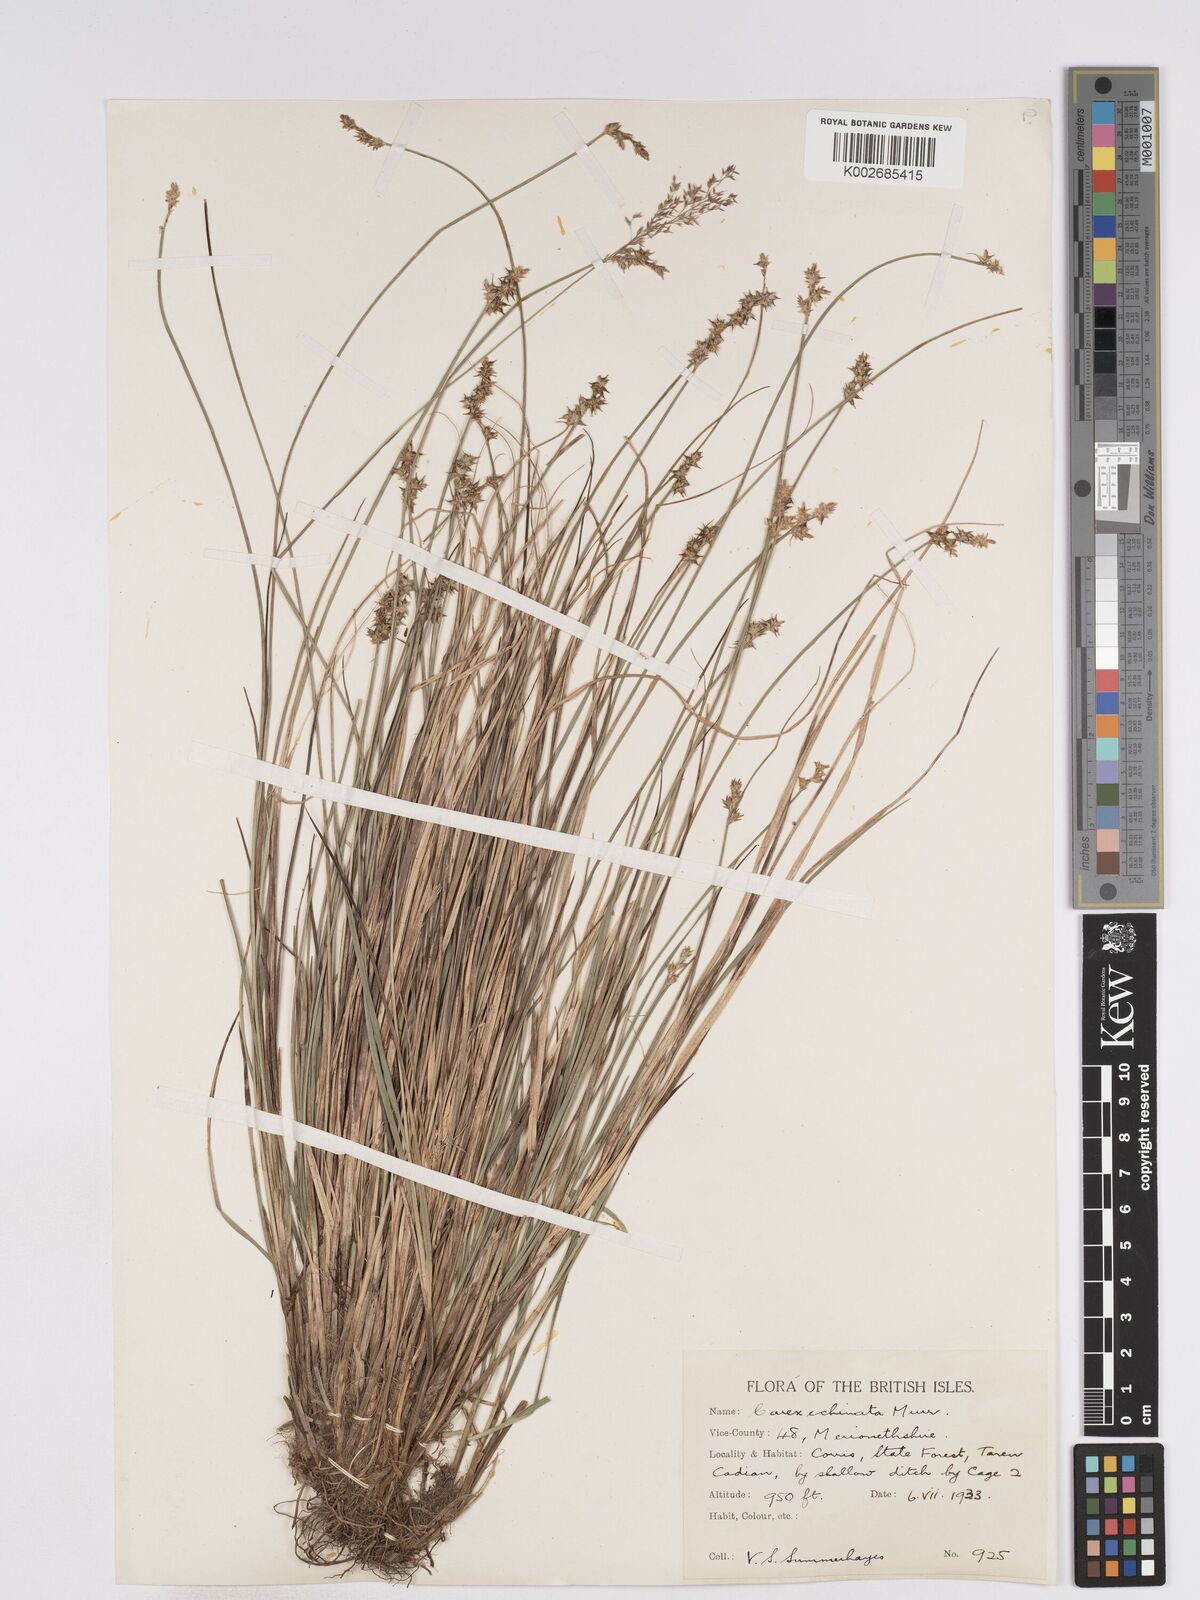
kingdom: Plantae
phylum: Tracheophyta
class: Liliopsida
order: Poales
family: Cyperaceae
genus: Carex
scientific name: Carex hispida
